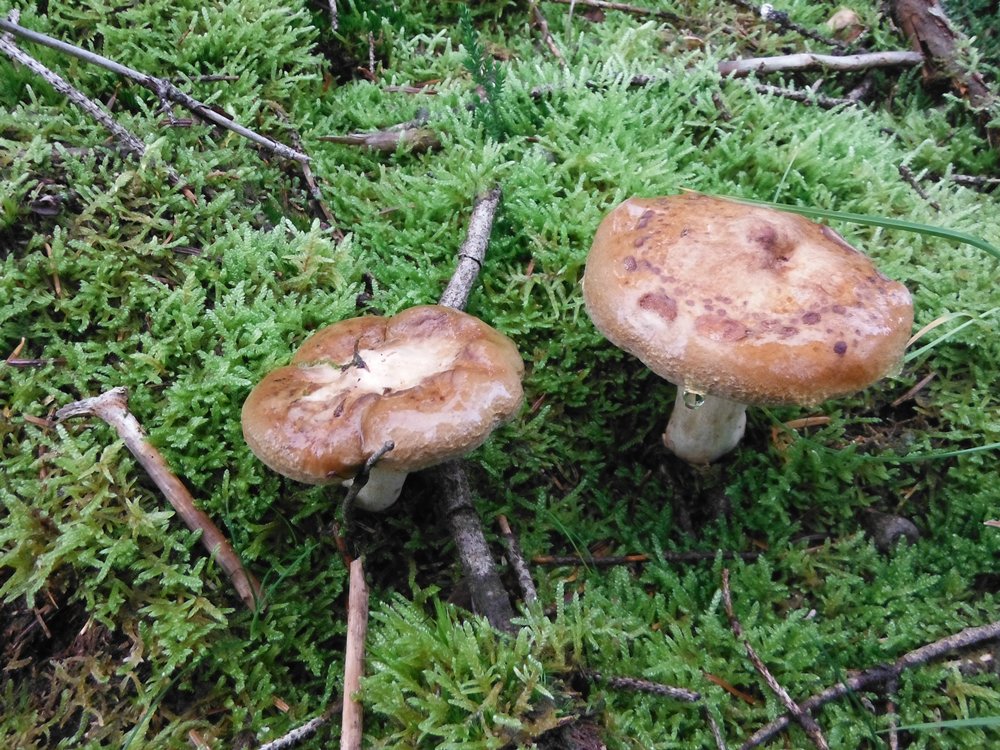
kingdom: Fungi
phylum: Basidiomycota
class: Agaricomycetes
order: Boletales
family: Paxillaceae
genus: Paxillus
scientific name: Paxillus involutus
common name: almindelig netbladhat
